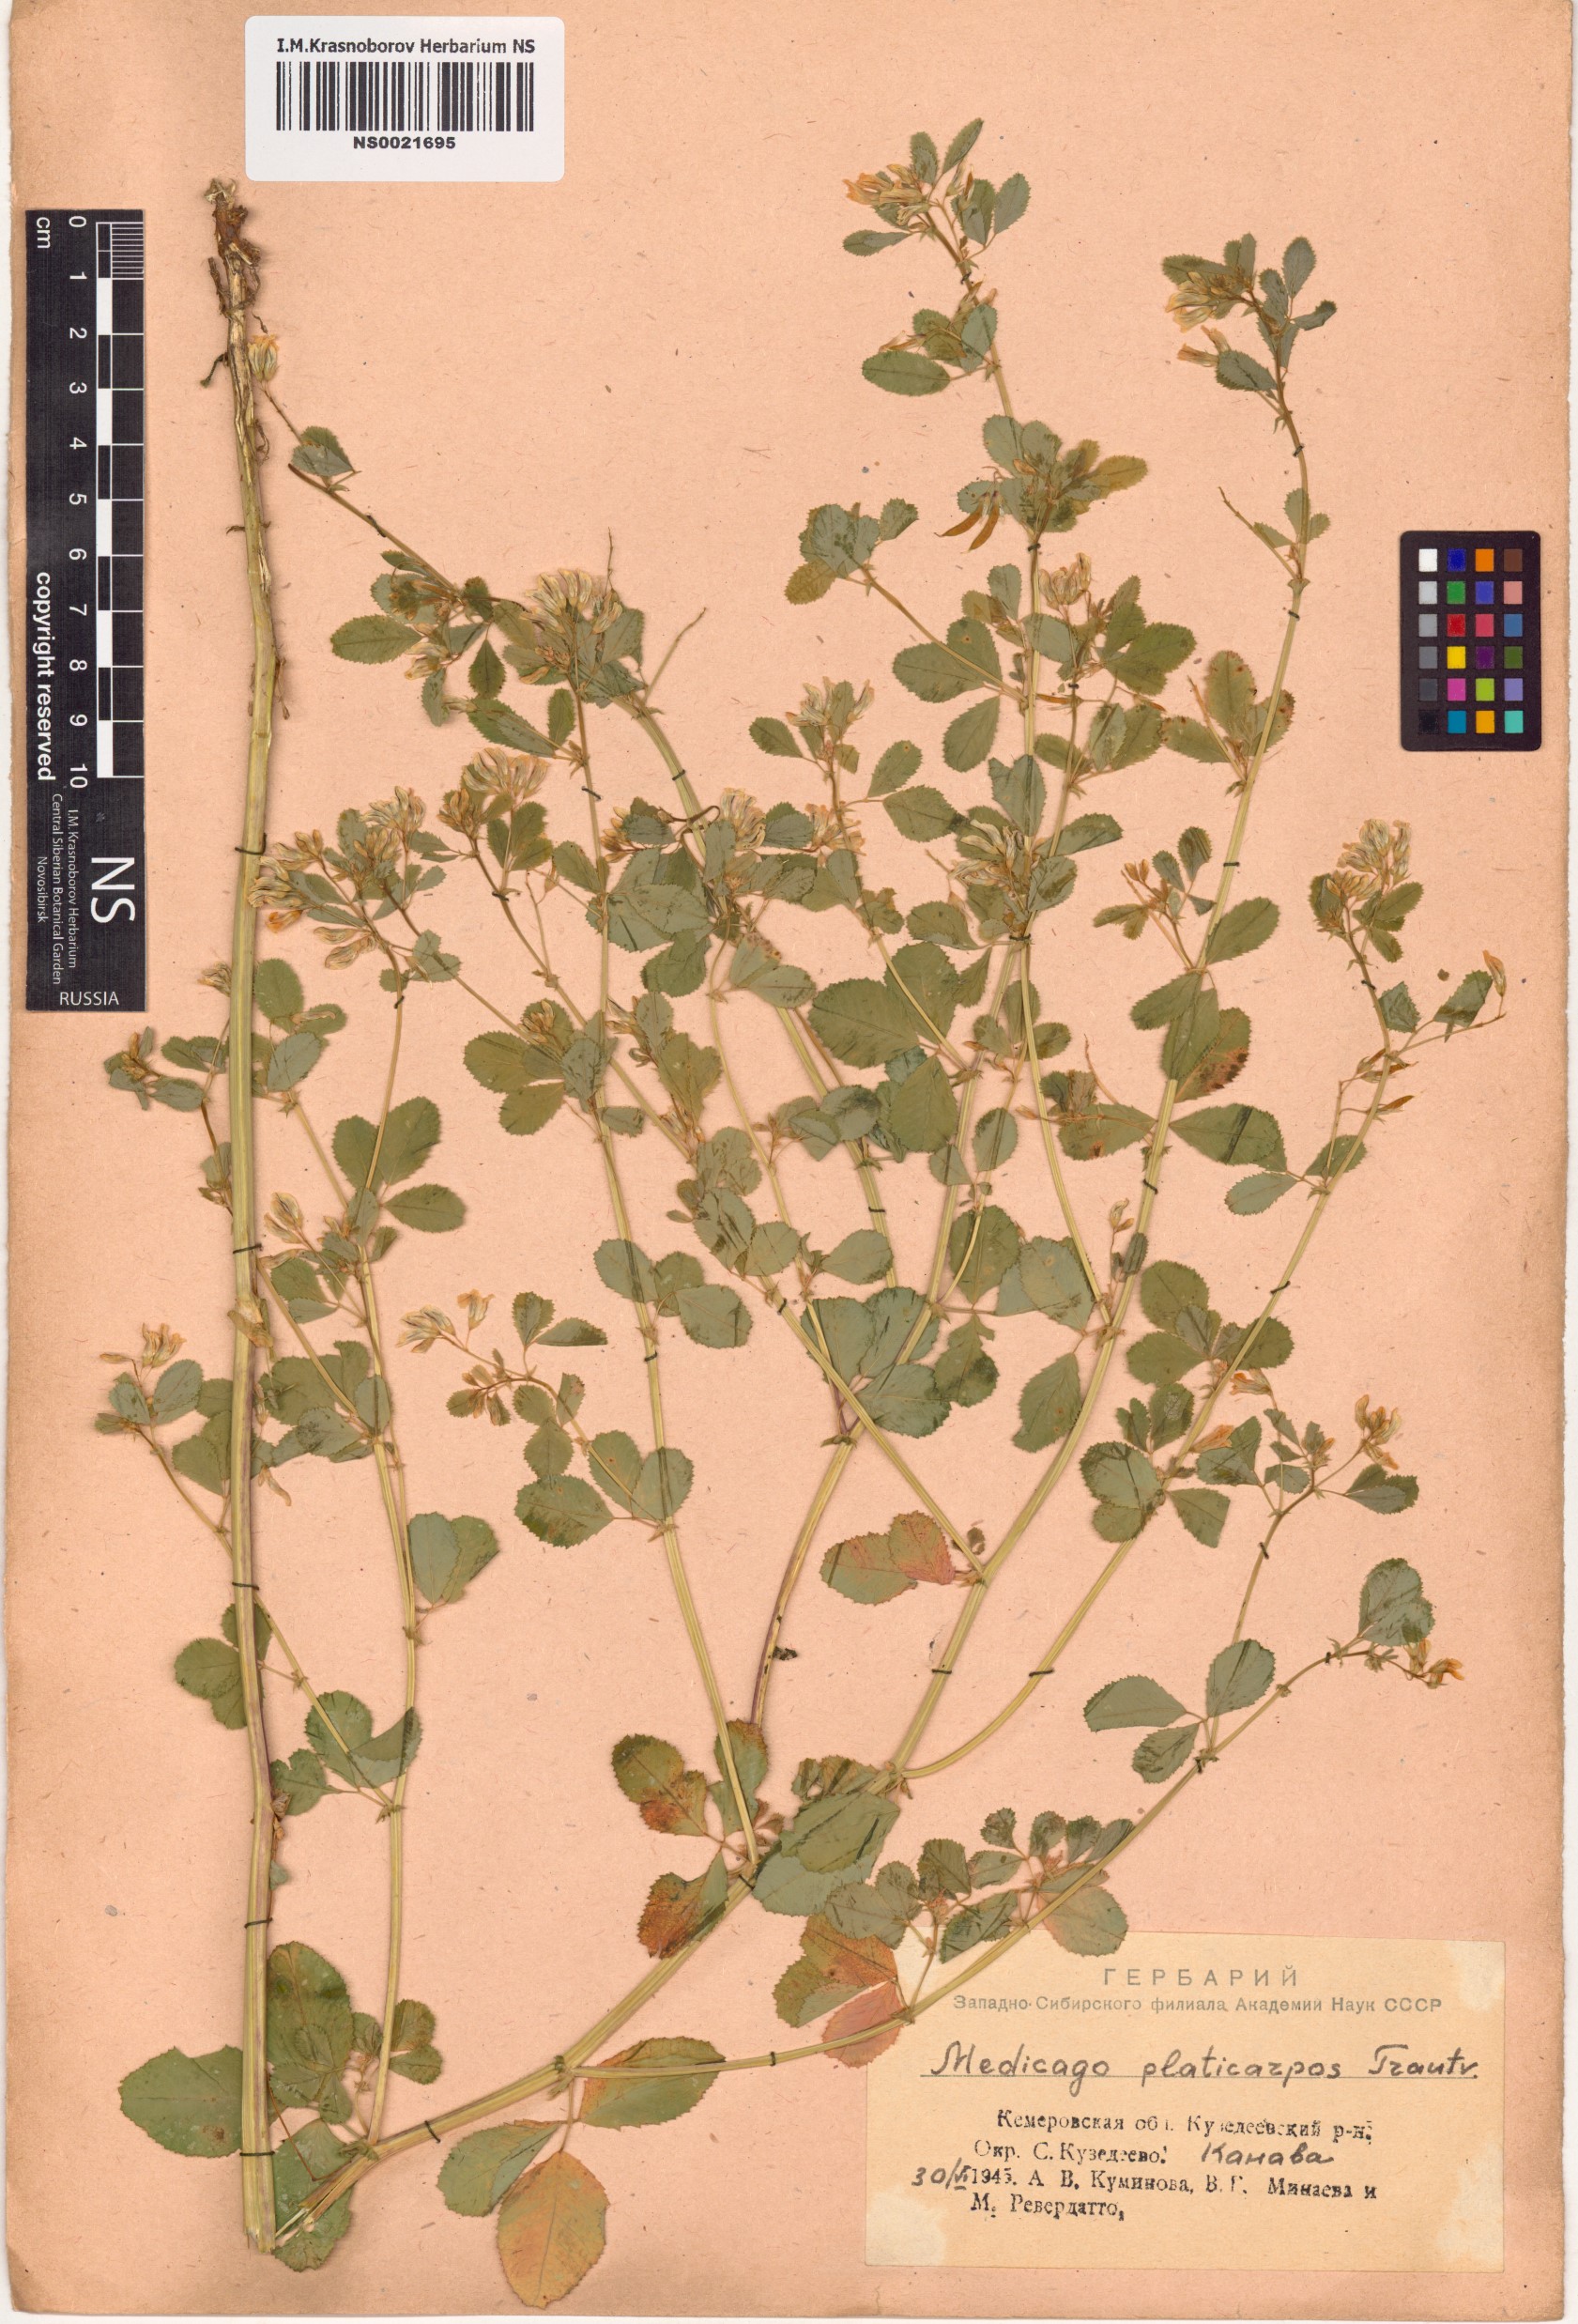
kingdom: Plantae
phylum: Tracheophyta
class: Magnoliopsida
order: Fabales
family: Fabaceae
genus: Medicago
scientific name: Medicago platycarpos
